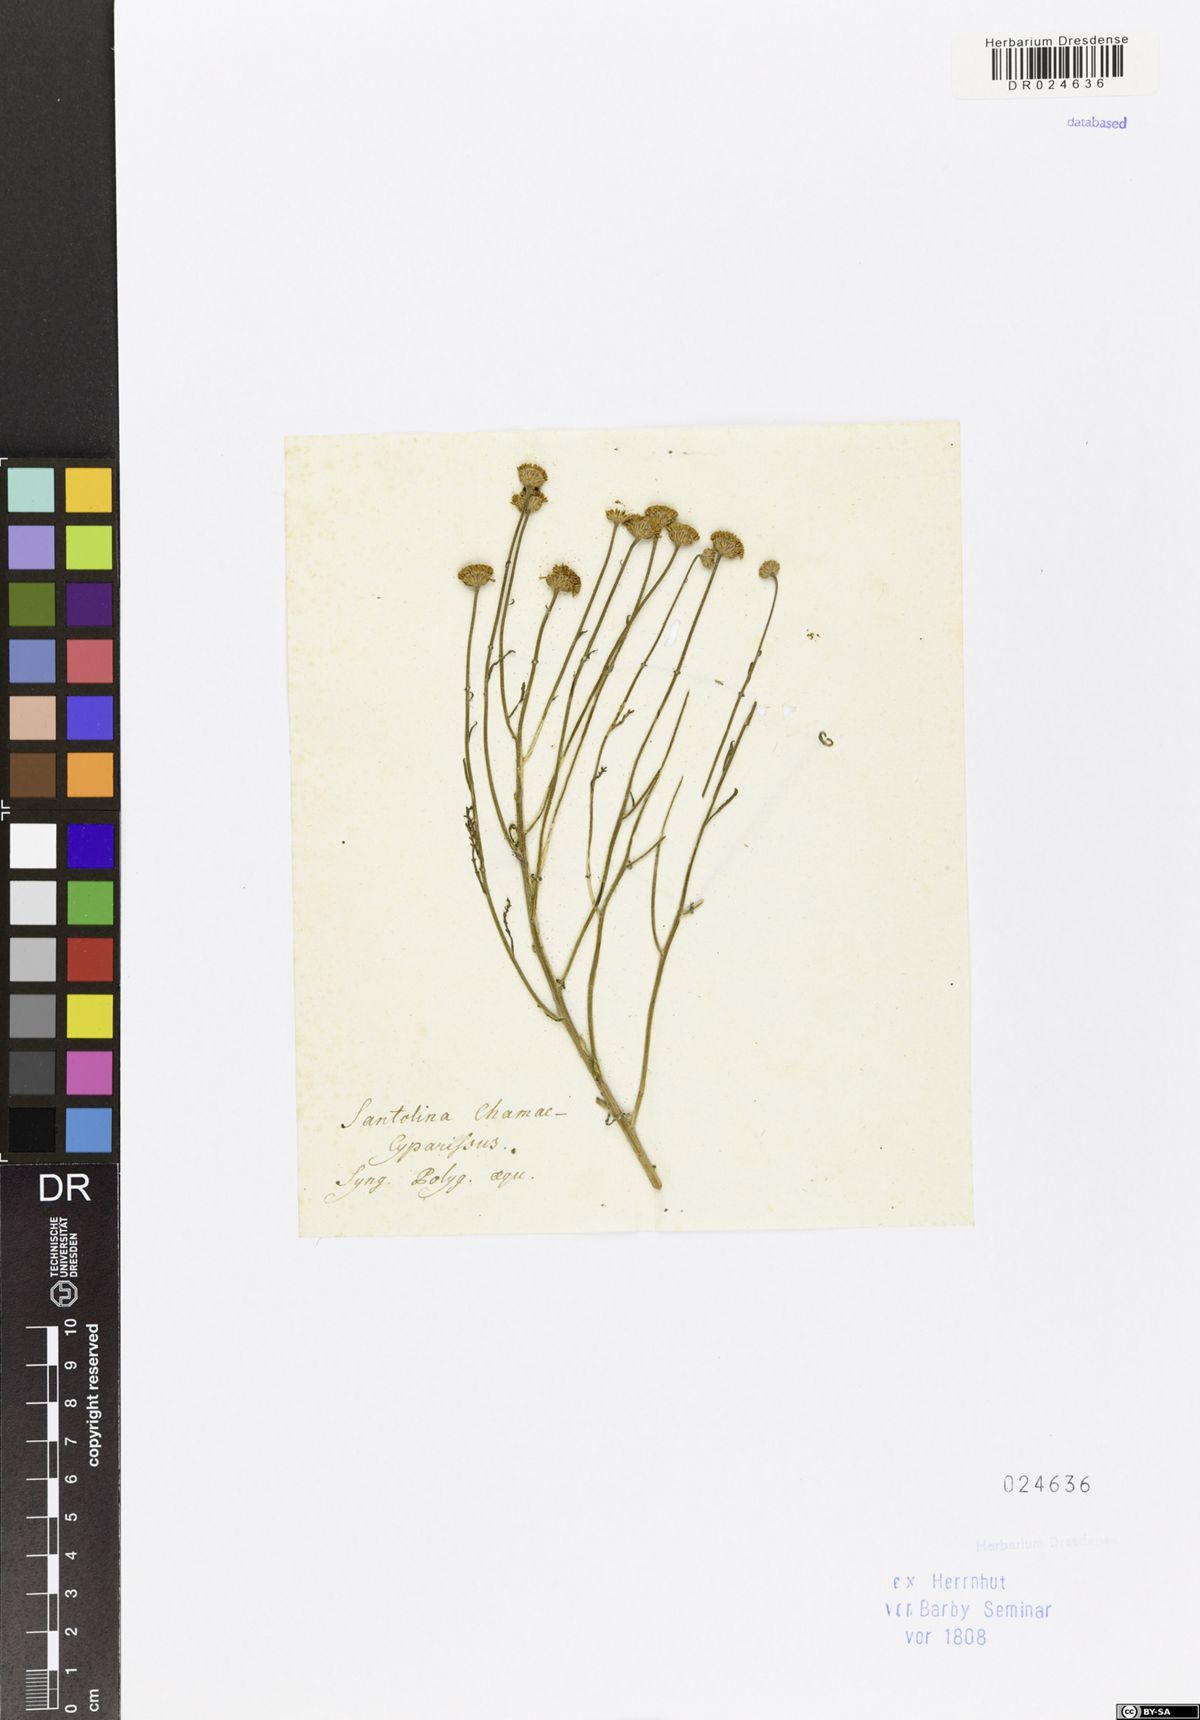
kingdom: Plantae
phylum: Tracheophyta
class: Magnoliopsida
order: Asterales
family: Asteraceae
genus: Santolina
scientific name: Santolina chamaecyparissus
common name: Lavender-cotton
